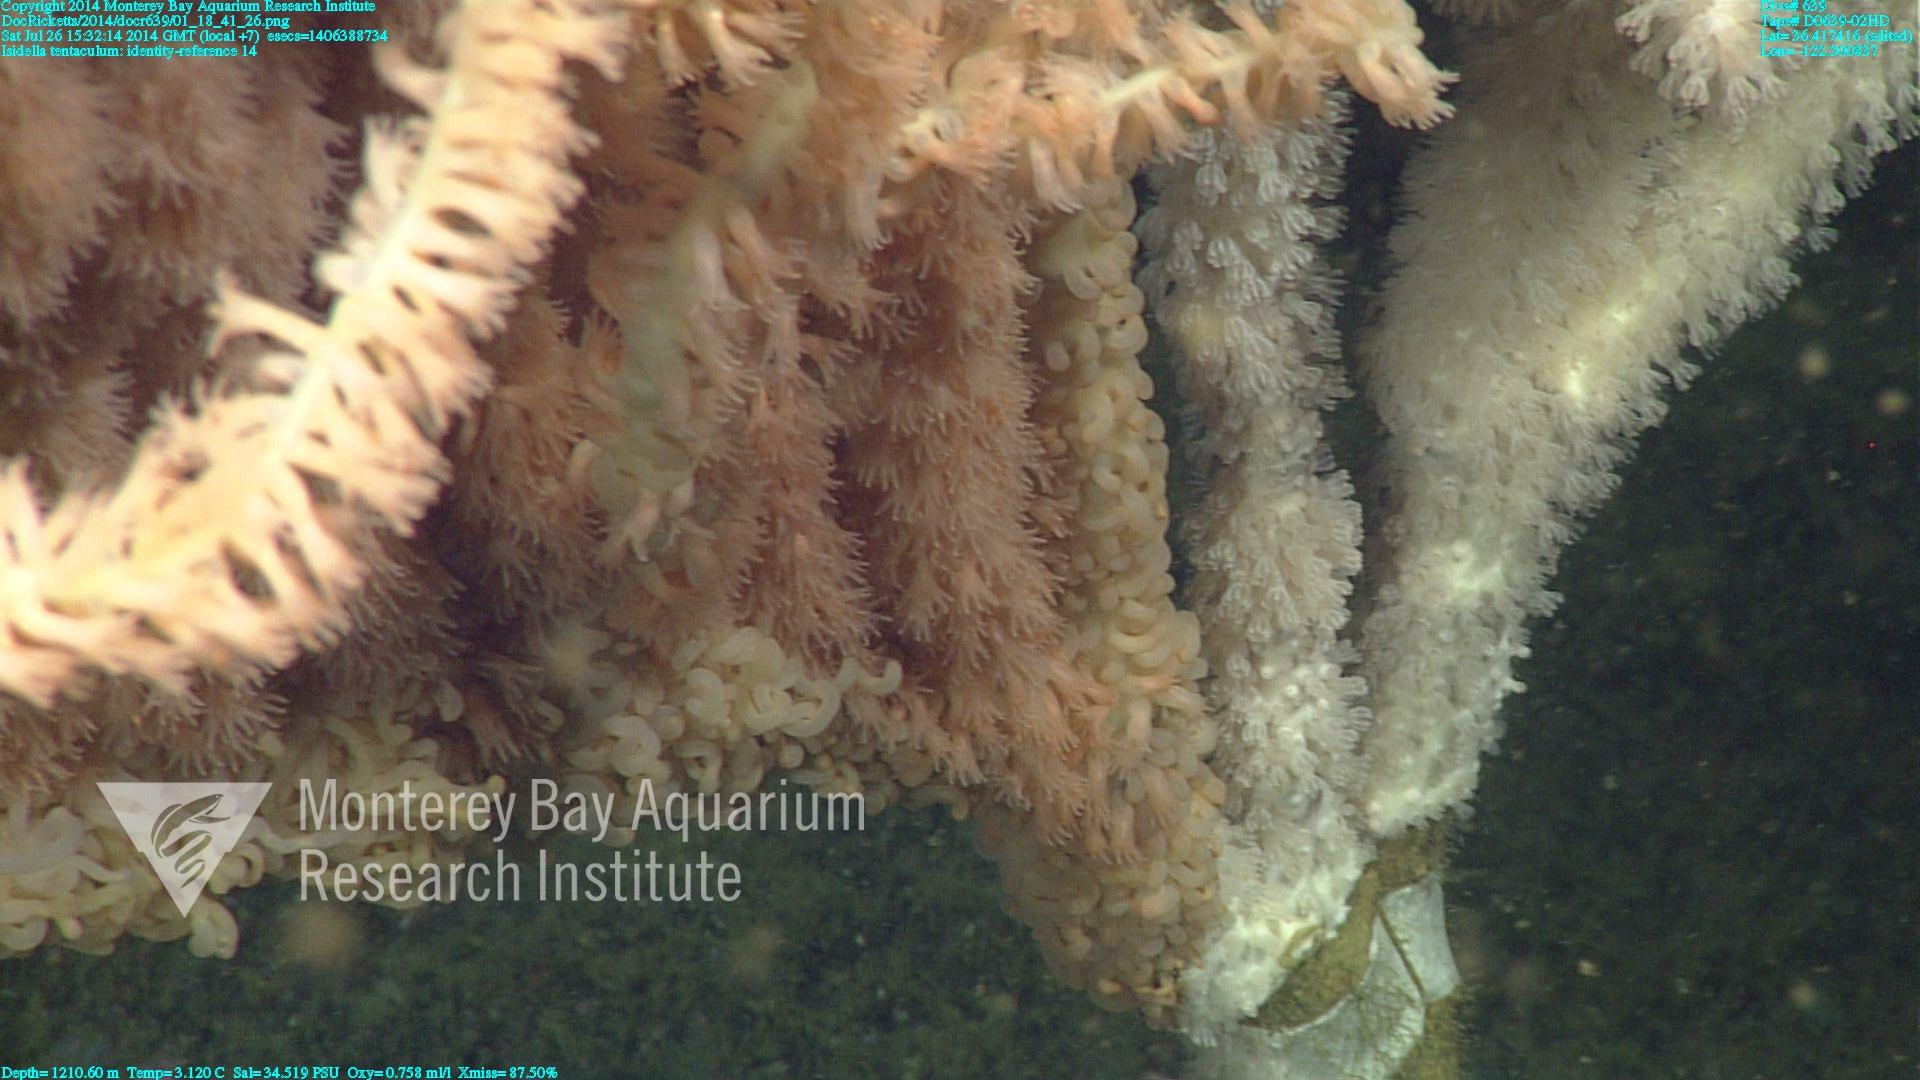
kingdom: Animalia
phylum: Cnidaria
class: Anthozoa
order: Scleralcyonacea
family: Keratoisididae
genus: Isidella
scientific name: Isidella tentaculum
